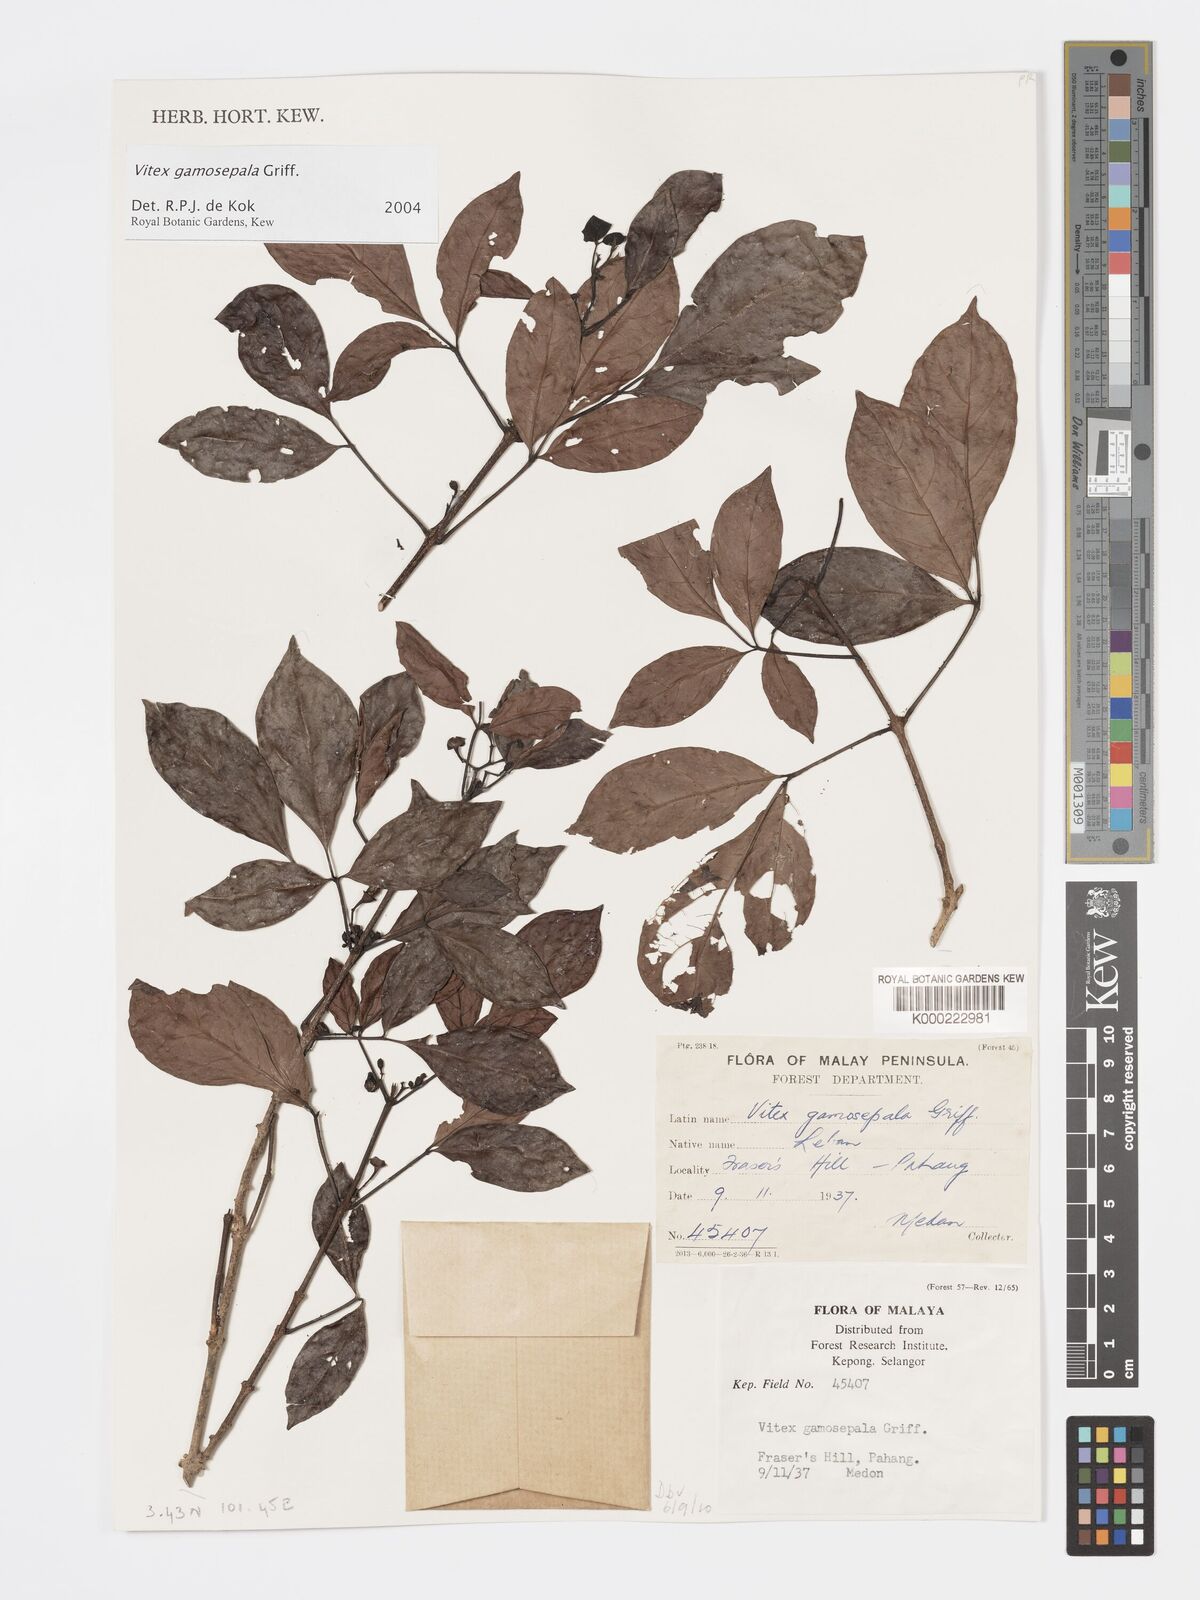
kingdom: Plantae
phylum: Tracheophyta
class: Magnoliopsida
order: Lamiales
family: Lamiaceae
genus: Vitex
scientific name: Vitex gamosepala
